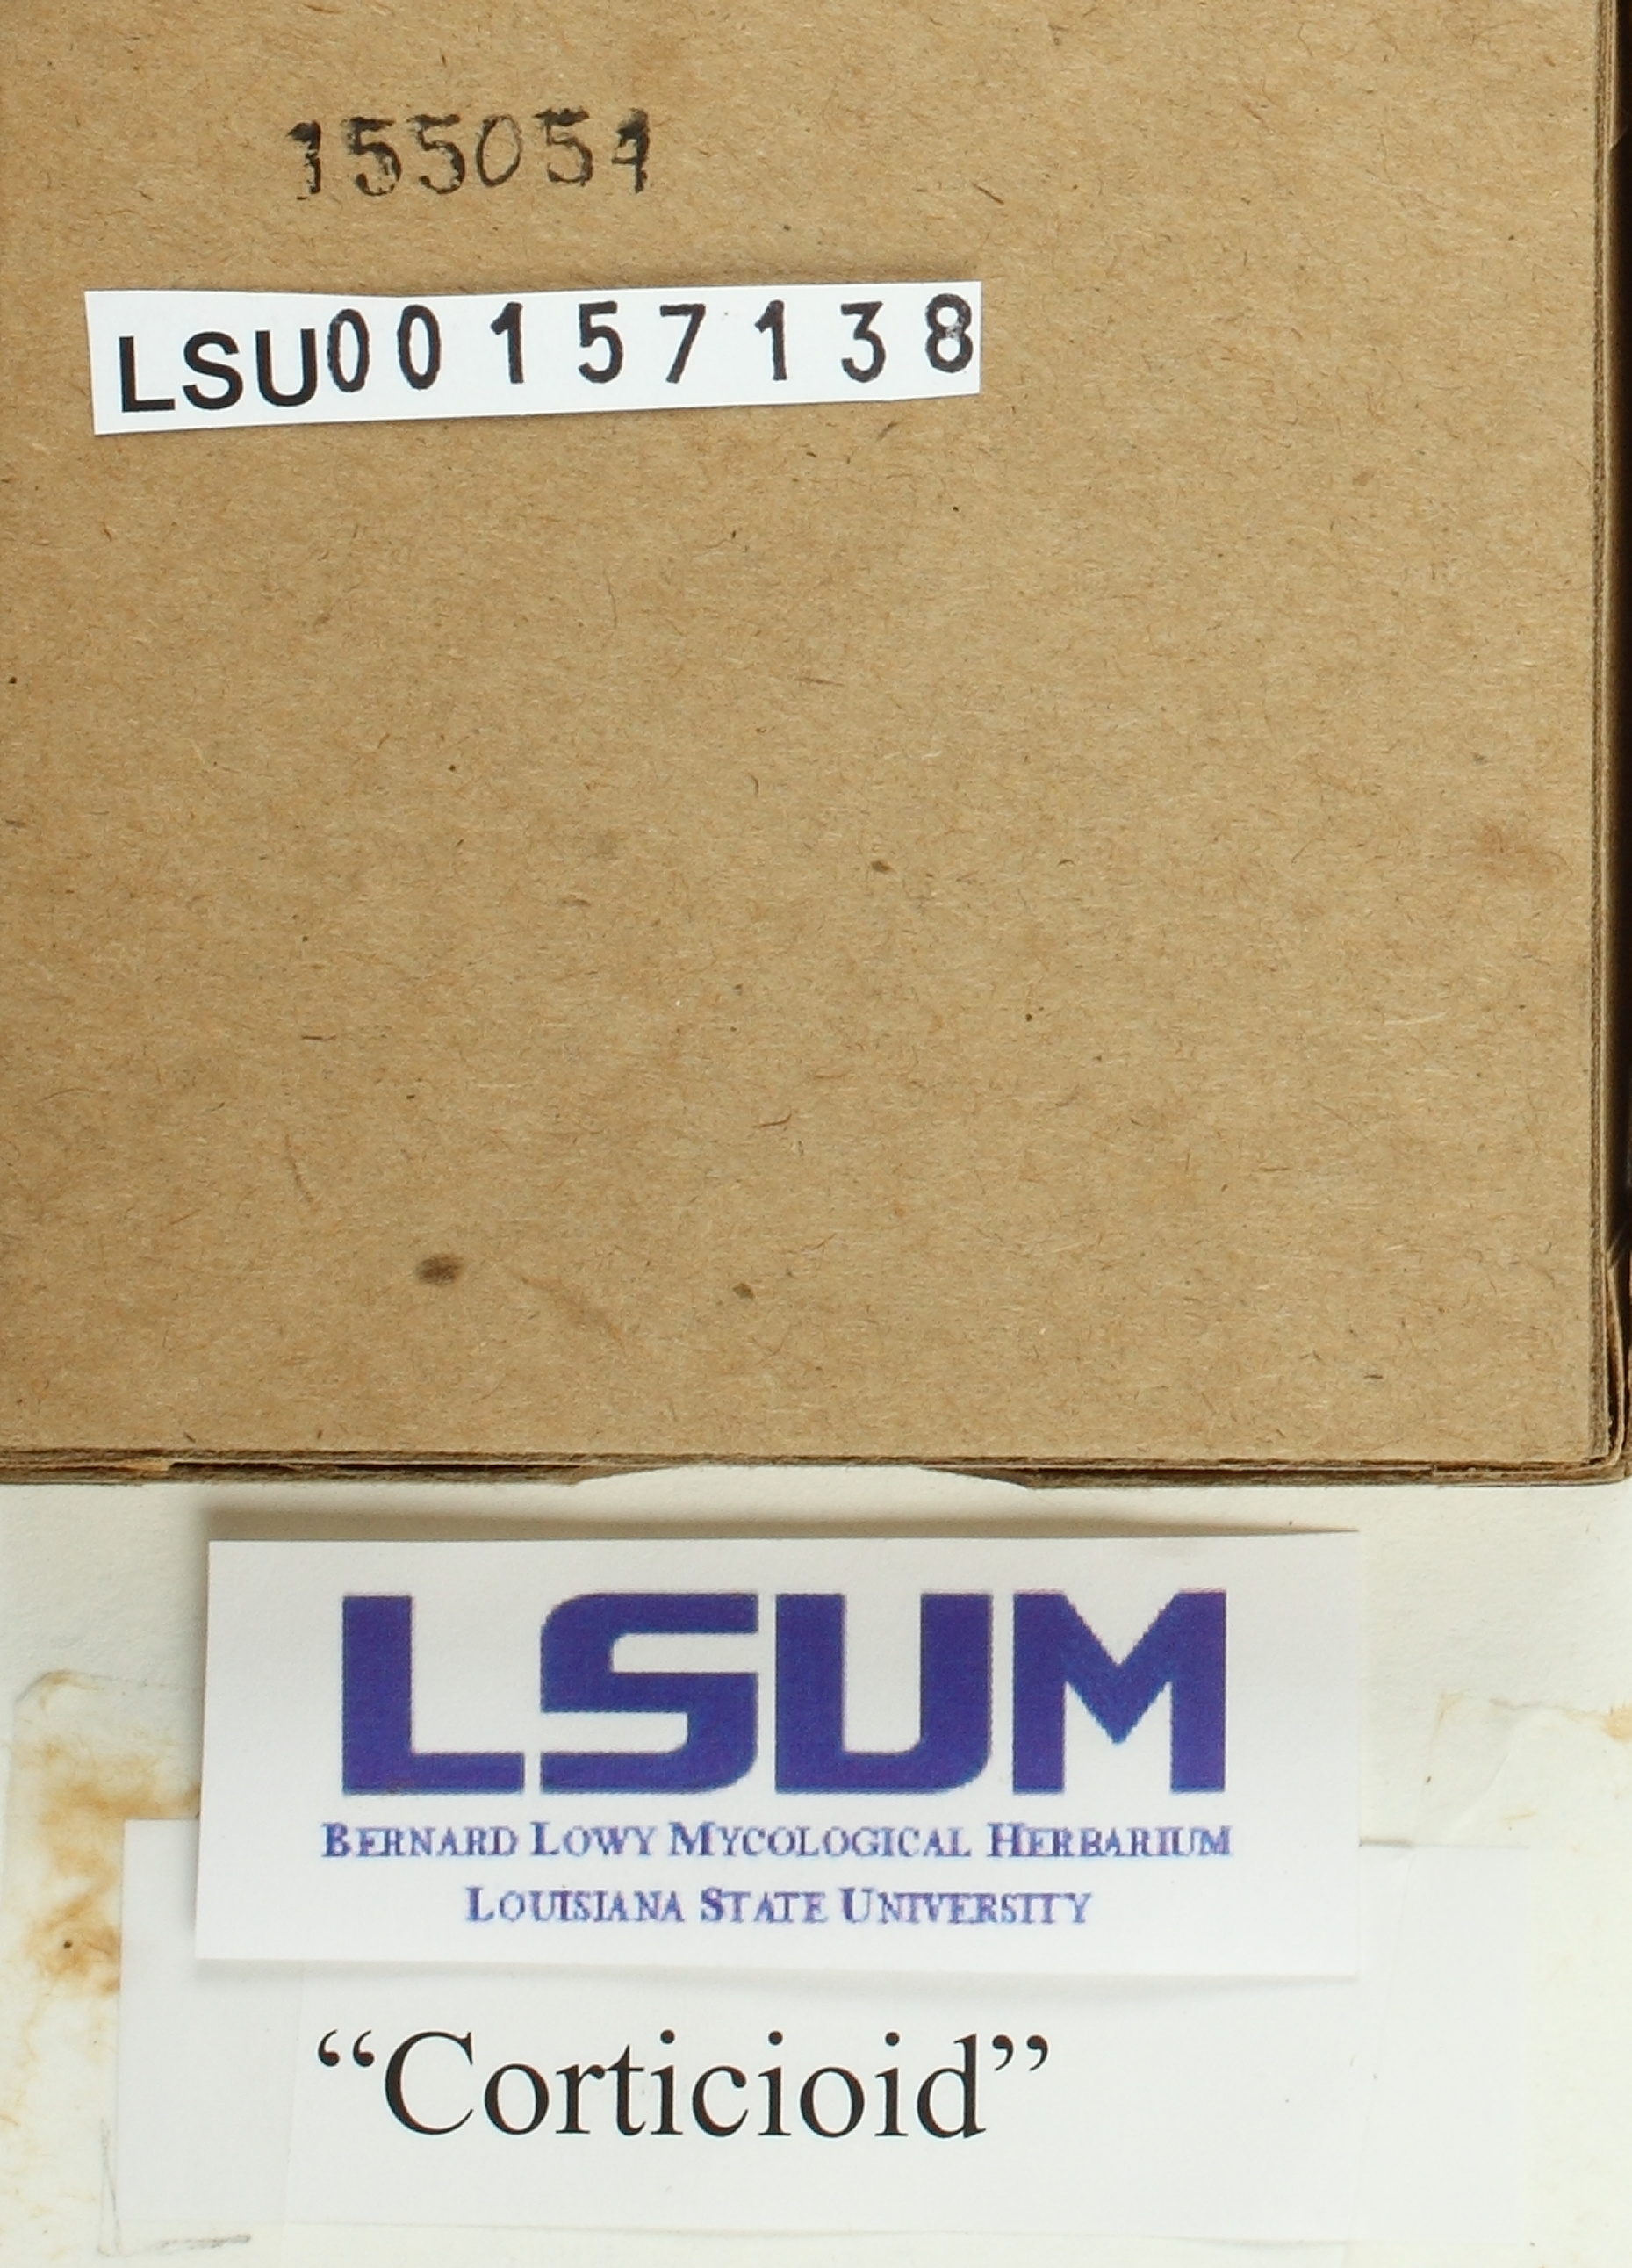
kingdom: Fungi
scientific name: Fungi
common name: Fungi
